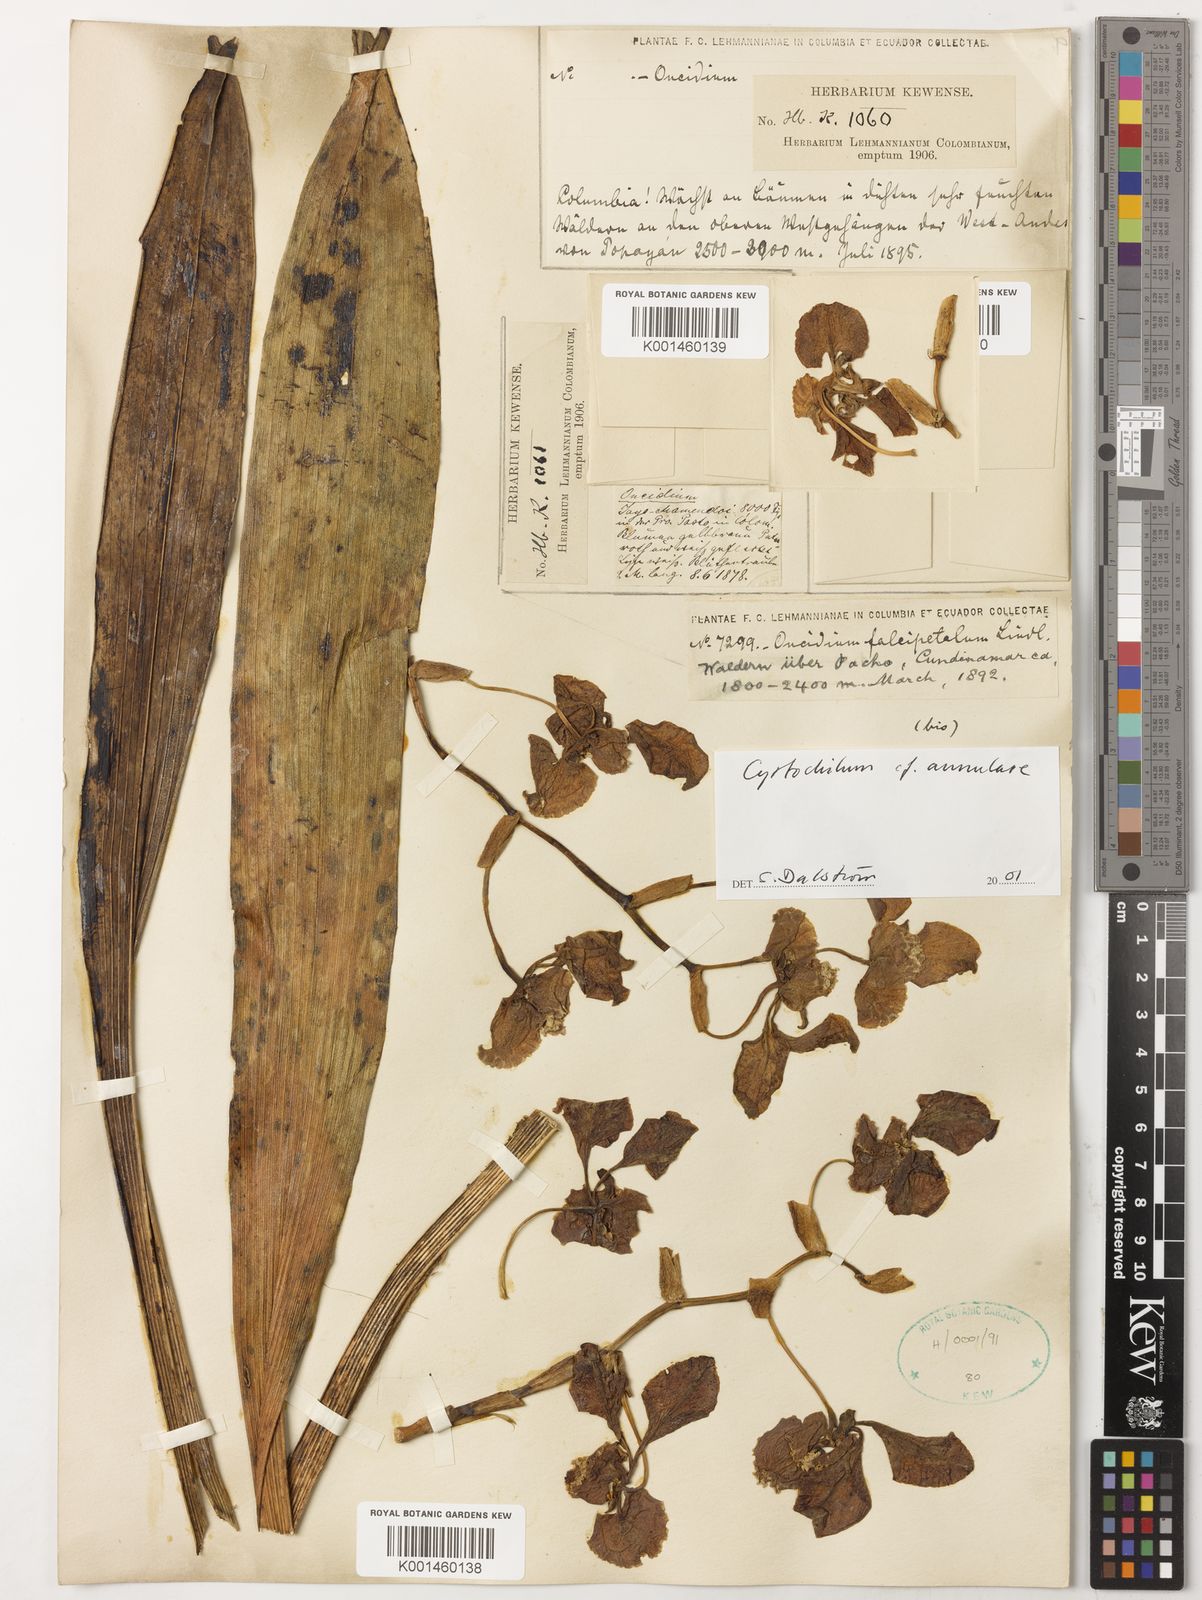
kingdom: Plantae
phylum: Tracheophyta
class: Liliopsida
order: Asparagales
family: Orchidaceae
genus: Cyrtochilum
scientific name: Cyrtochilum annulare
